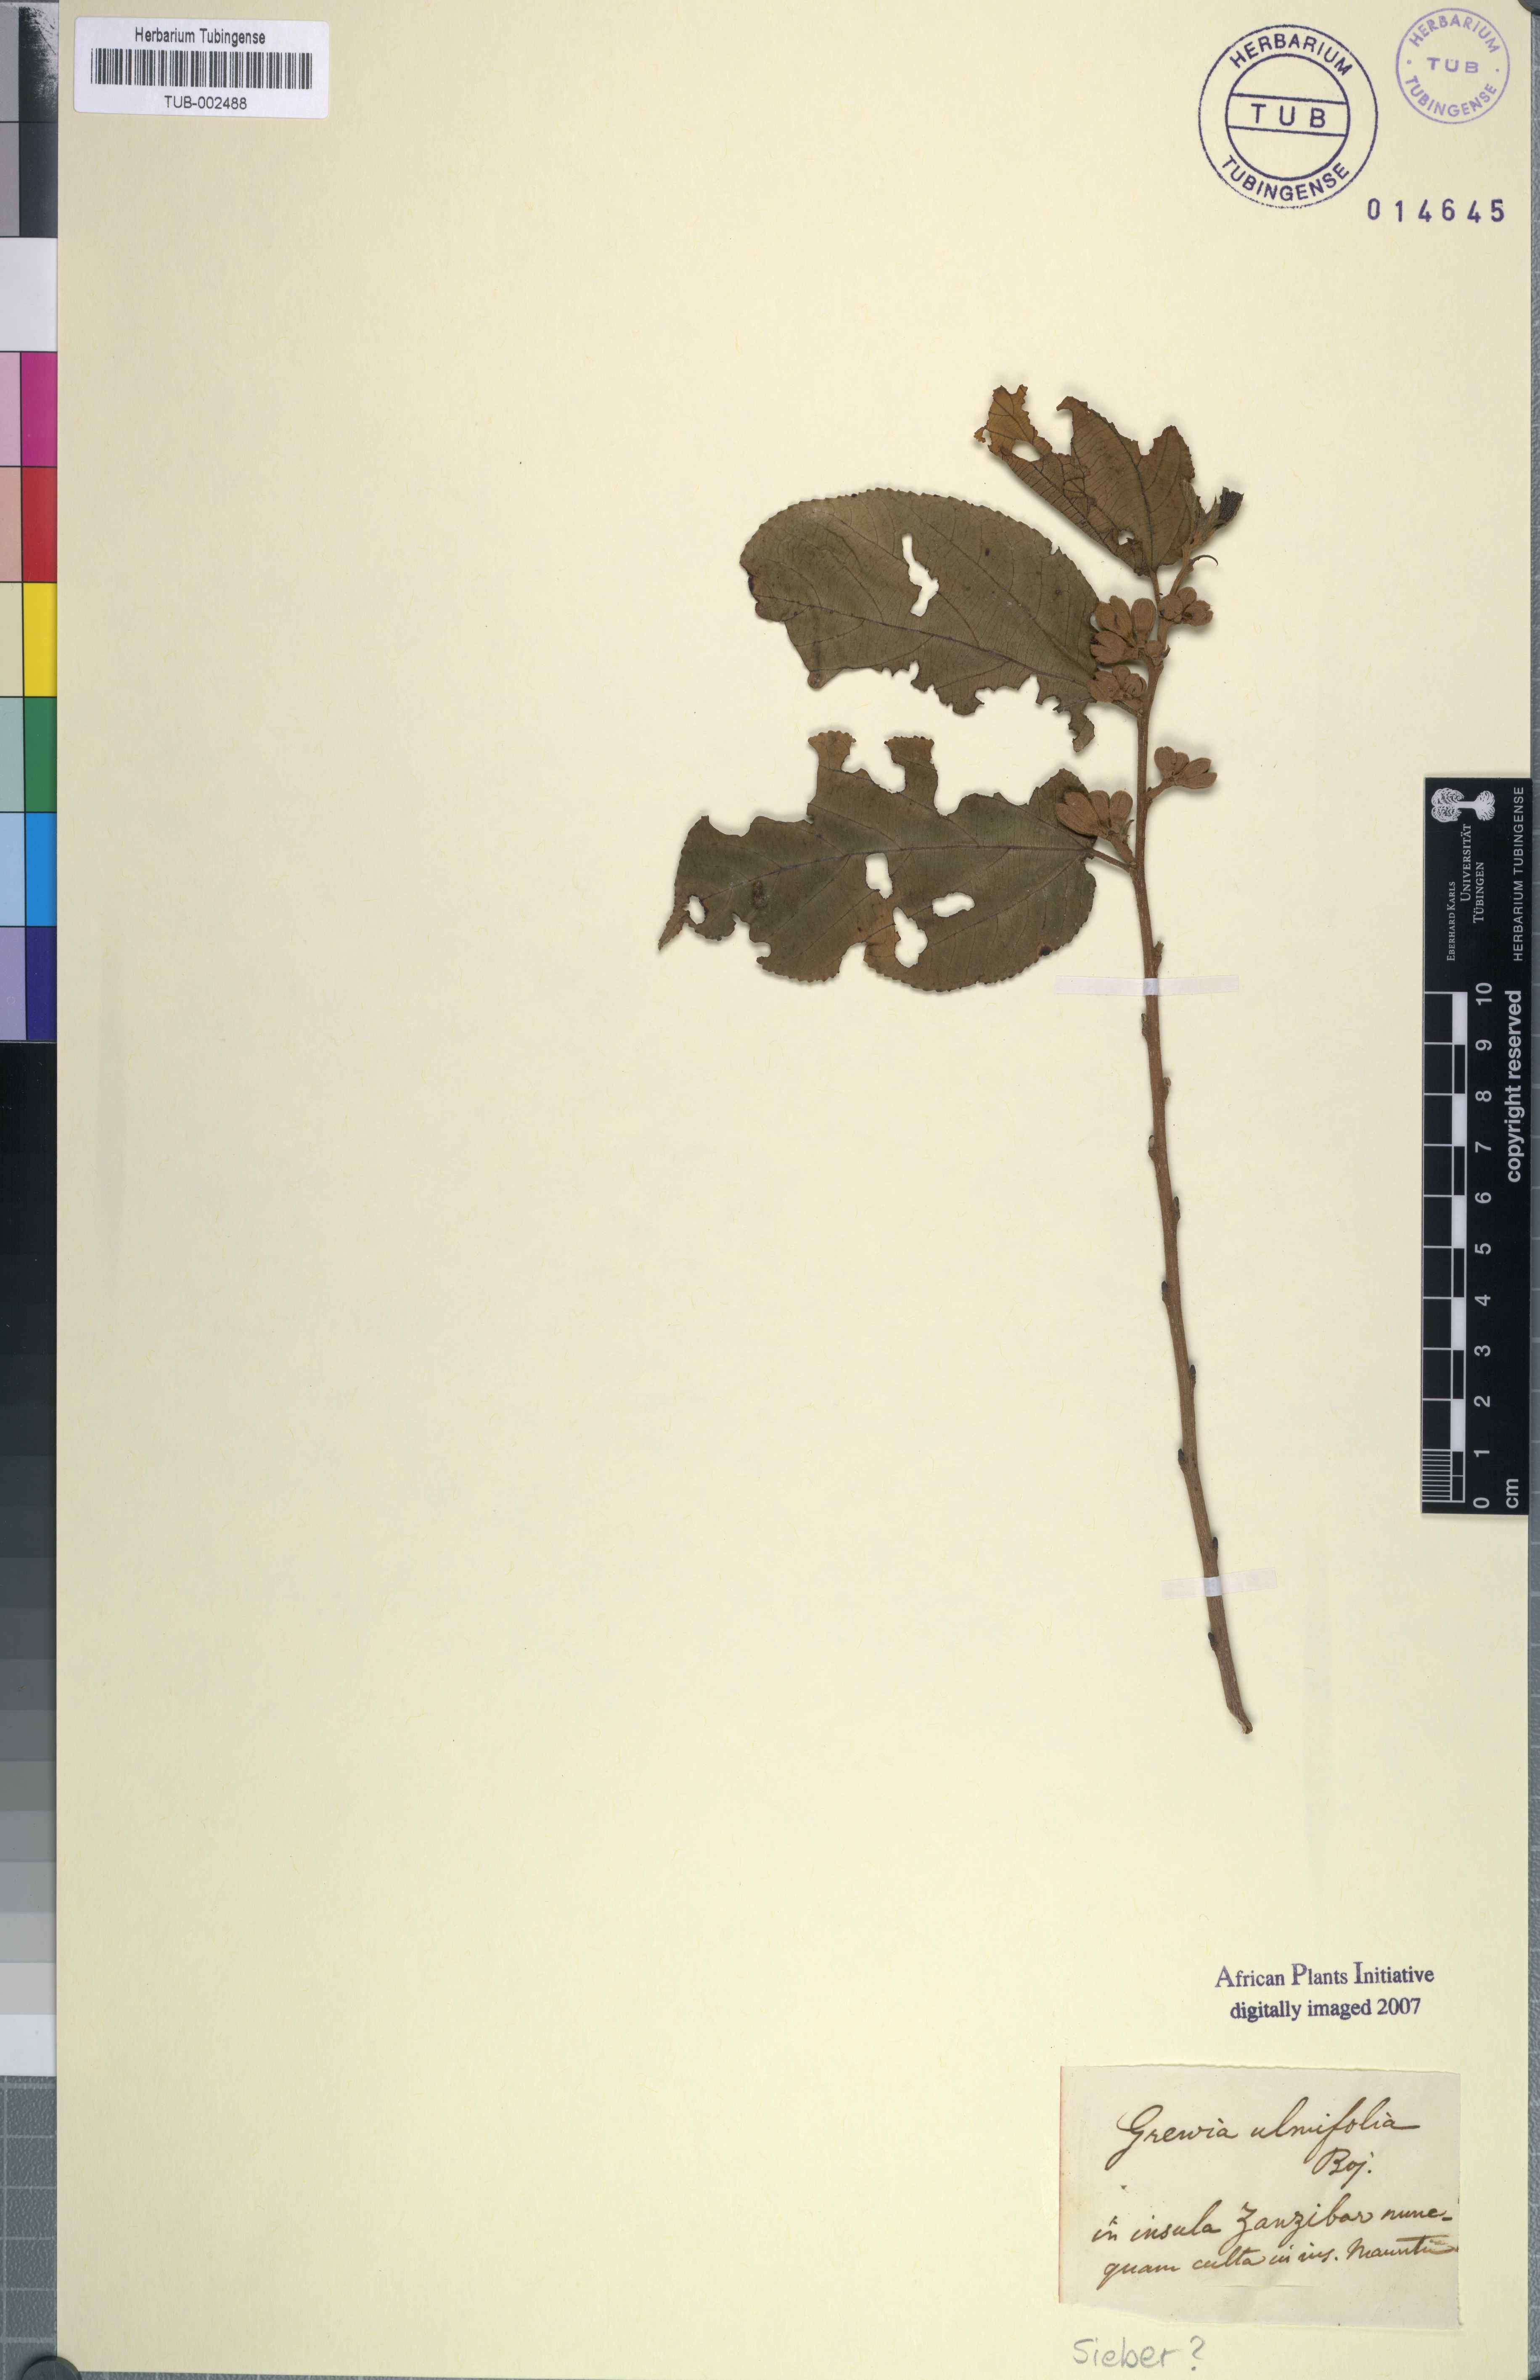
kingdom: Plantae
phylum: Tracheophyta
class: Magnoliopsida
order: Malvales
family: Malvaceae
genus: Grewia
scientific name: Grewia glandulosa
